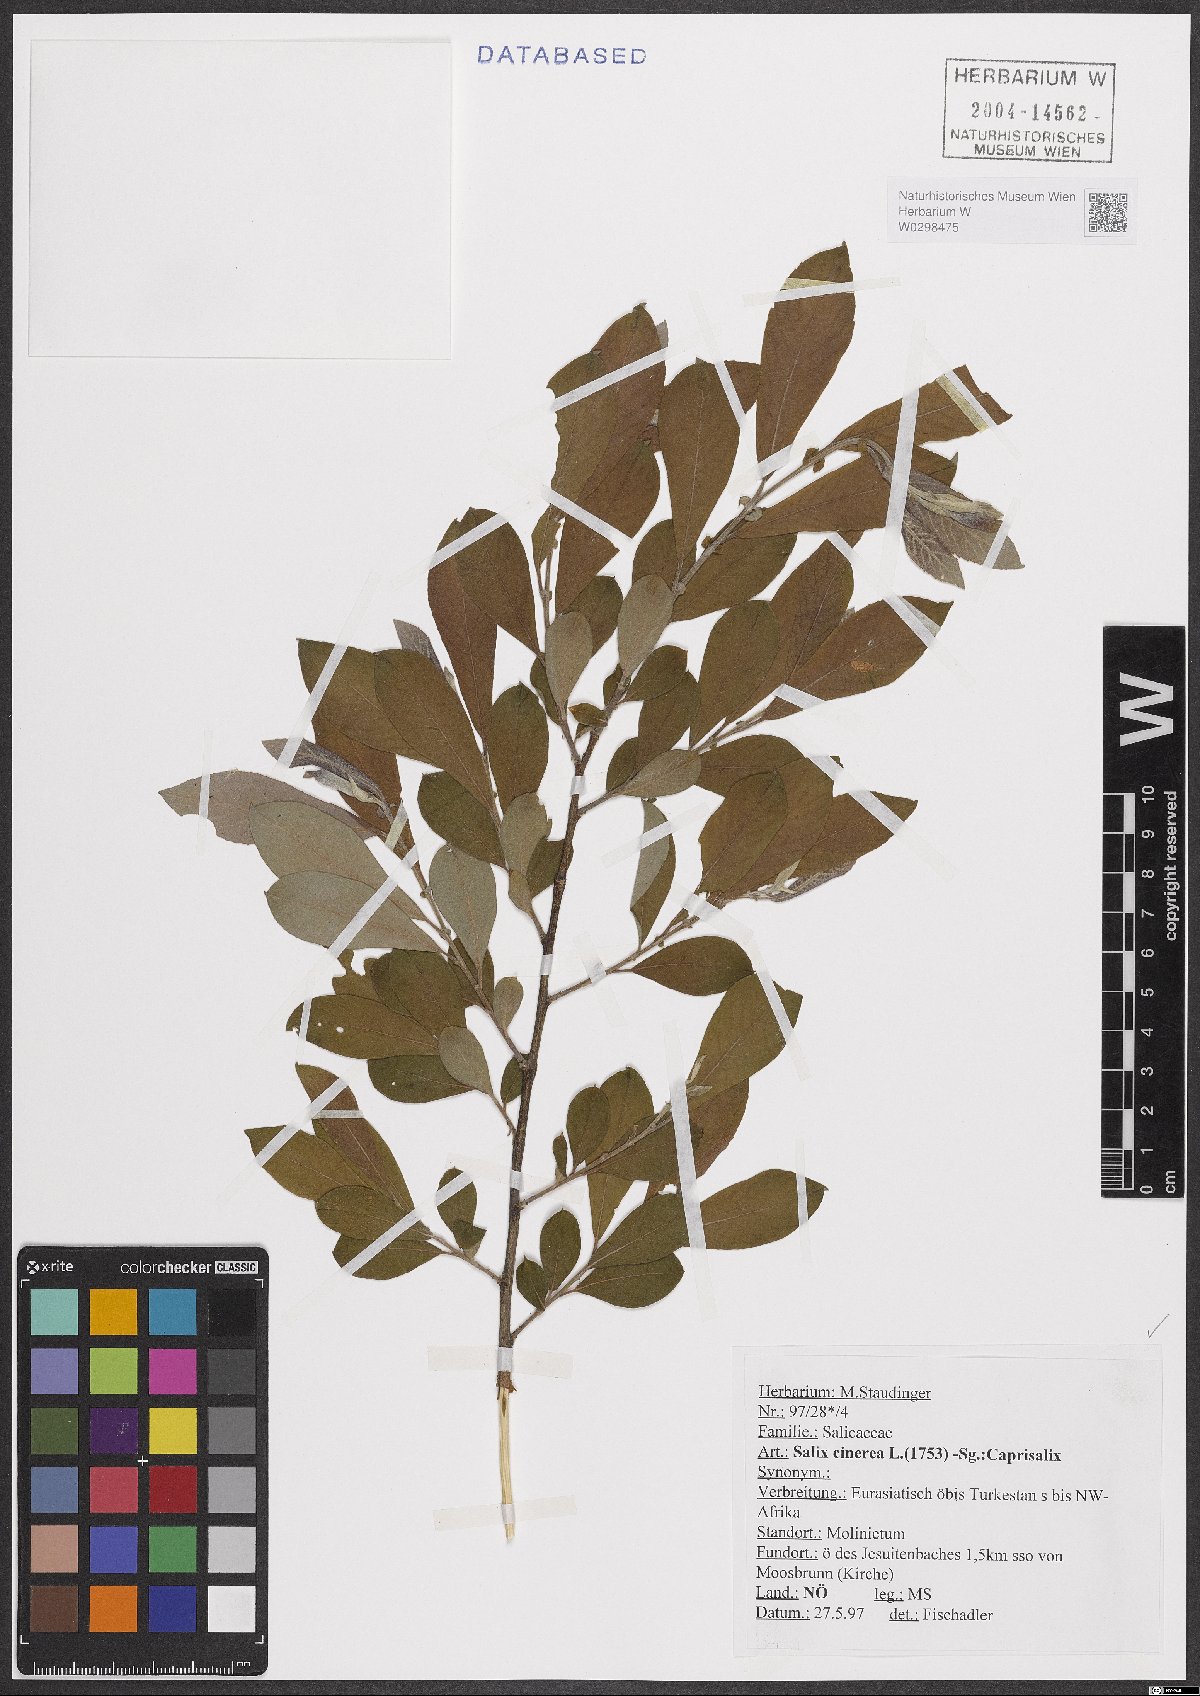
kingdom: Plantae
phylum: Tracheophyta
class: Magnoliopsida
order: Malpighiales
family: Salicaceae
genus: Salix
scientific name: Salix cinerea
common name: Common sallow
